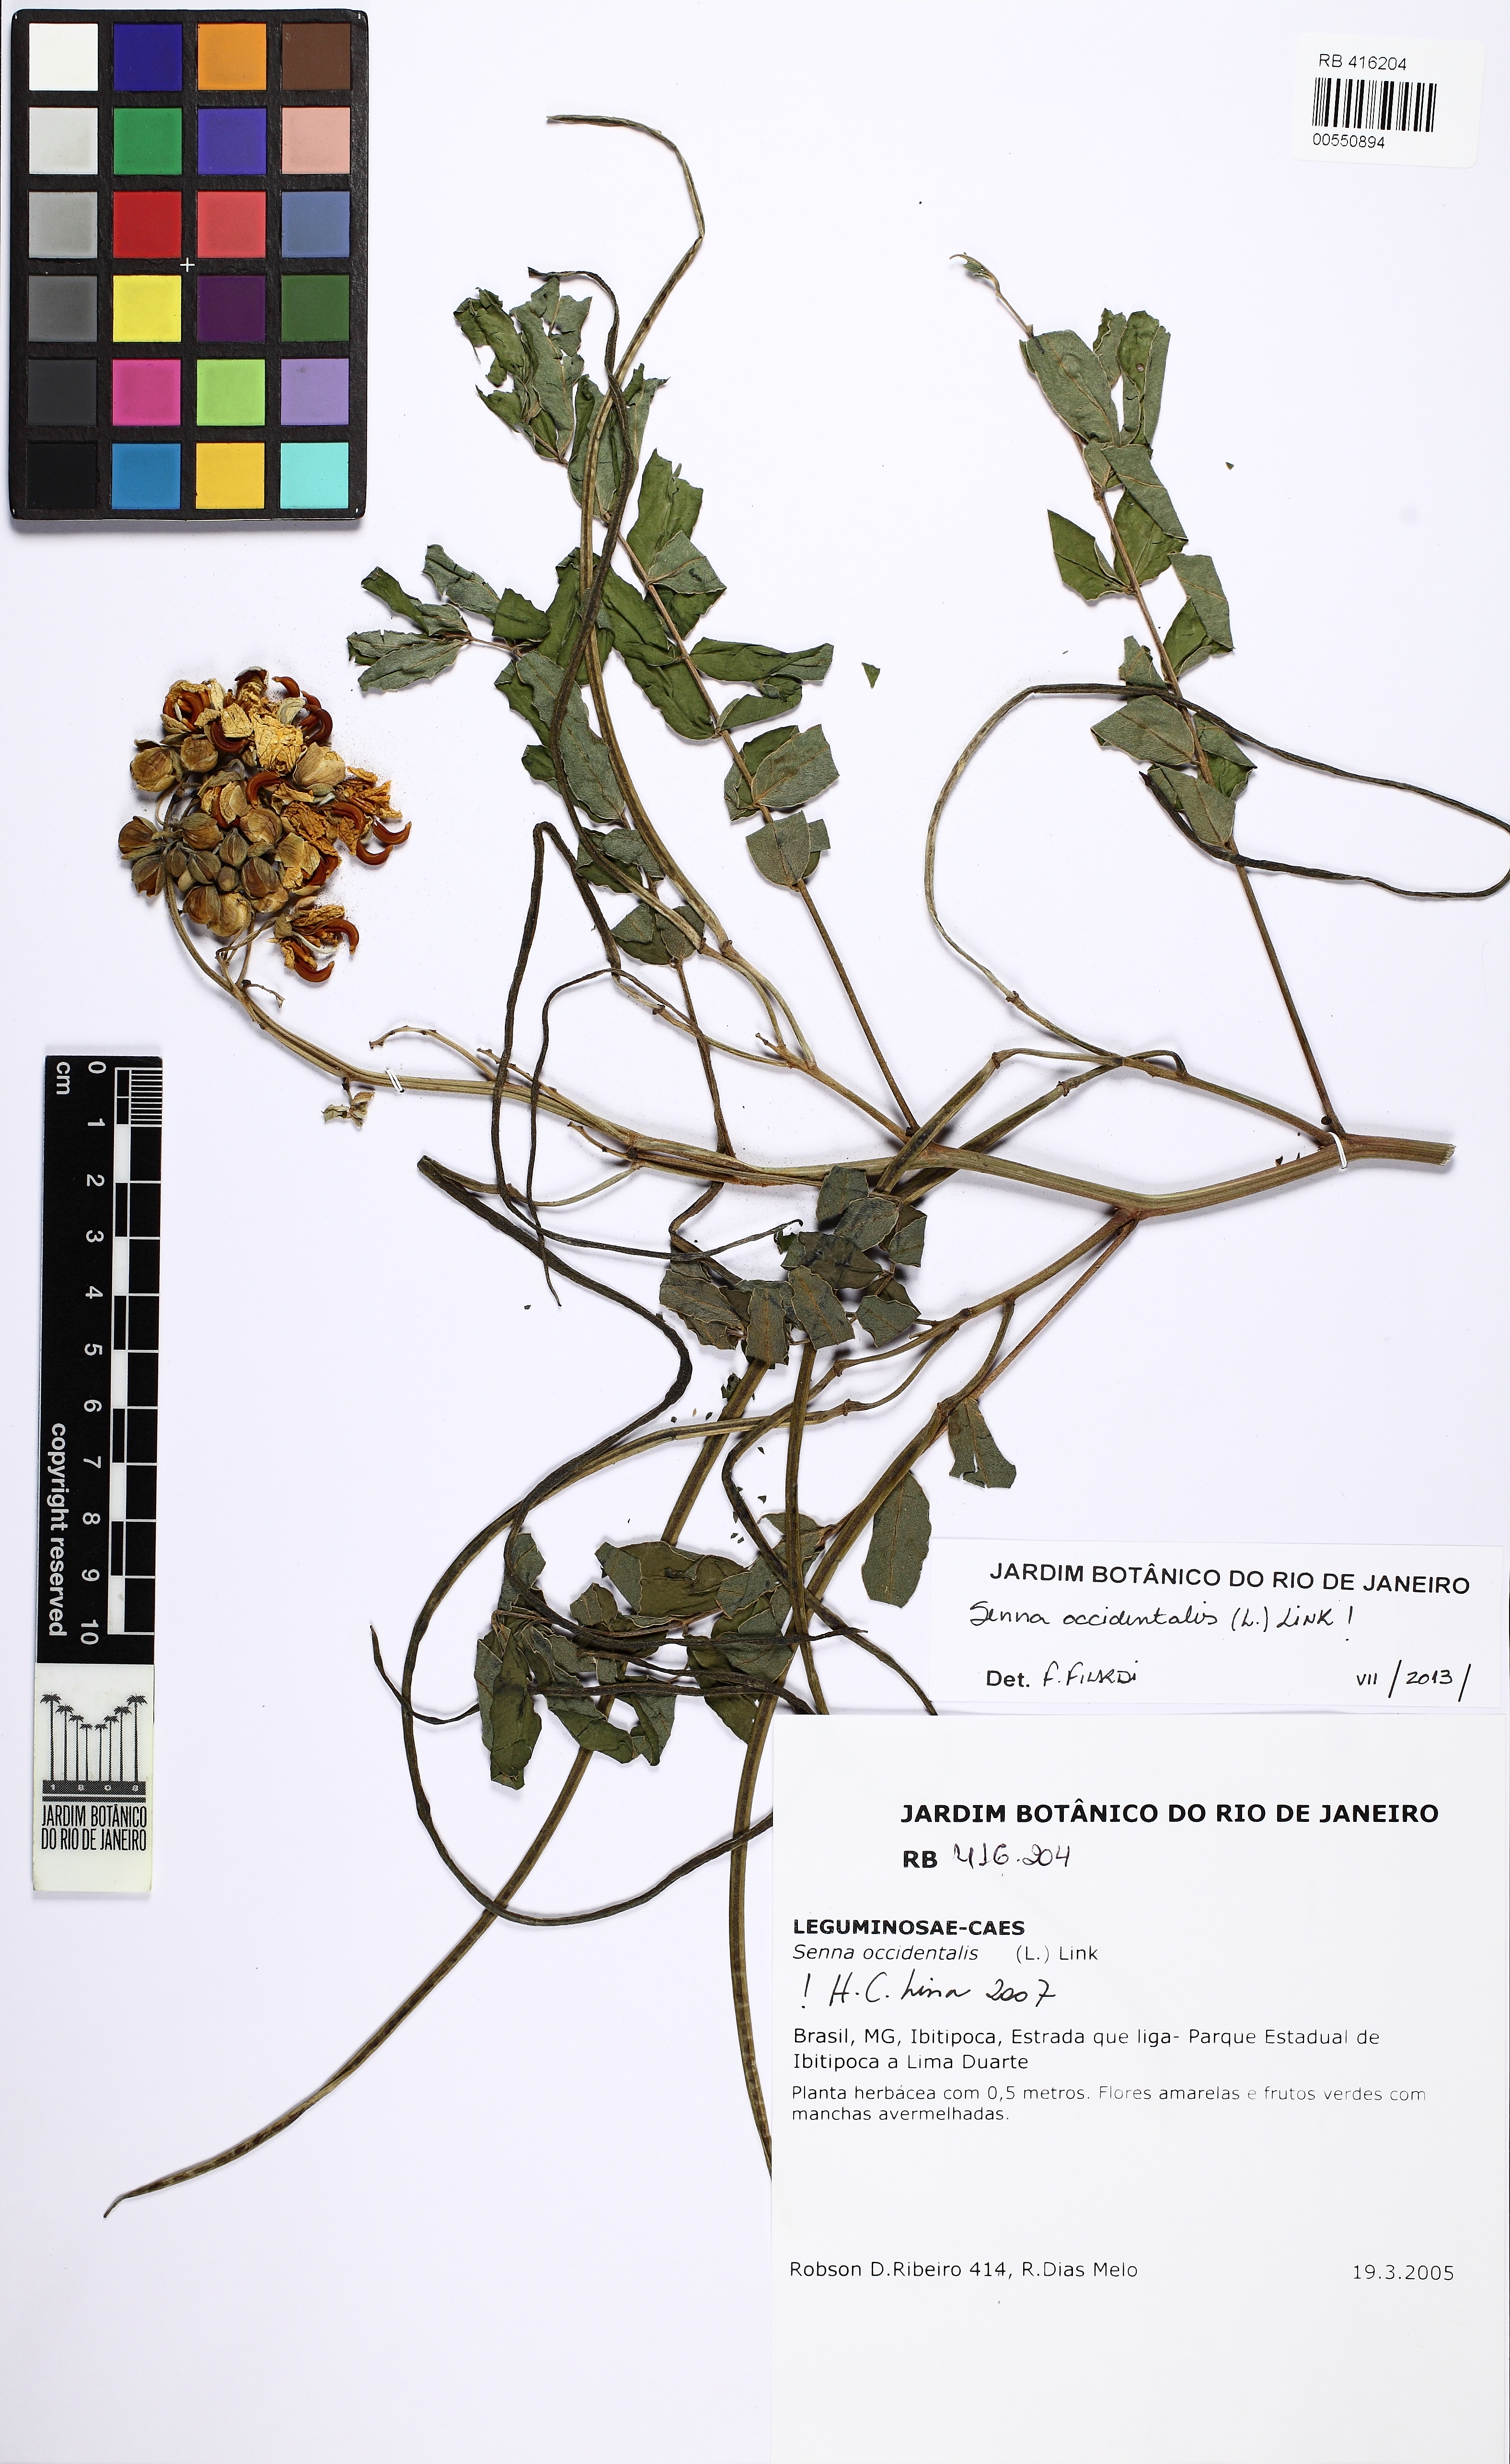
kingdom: Plantae
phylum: Tracheophyta
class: Magnoliopsida
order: Fabales
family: Fabaceae
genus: Senna
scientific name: Senna occidentalis
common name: Septicweed
